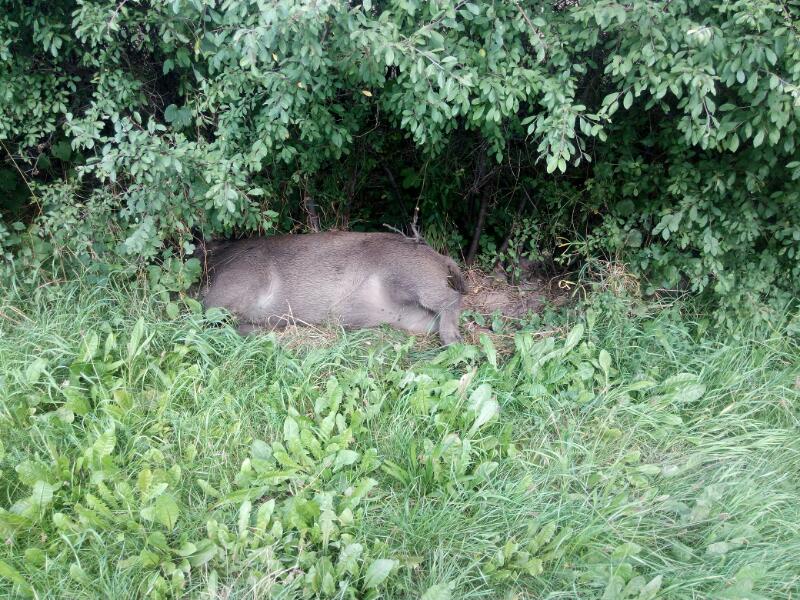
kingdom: Animalia
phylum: Chordata
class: Mammalia
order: Artiodactyla
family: Suidae
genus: Sus
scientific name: Sus scrofa
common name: Wild boar
